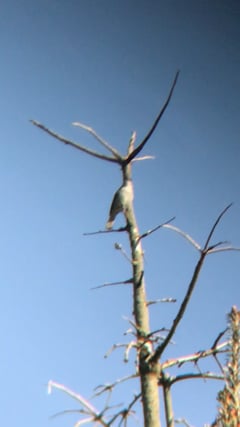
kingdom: Animalia
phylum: Chordata
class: Aves
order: Passeriformes
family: Sylviidae
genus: Sylvia
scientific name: Sylvia atricapilla
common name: Eurasian blackcap
